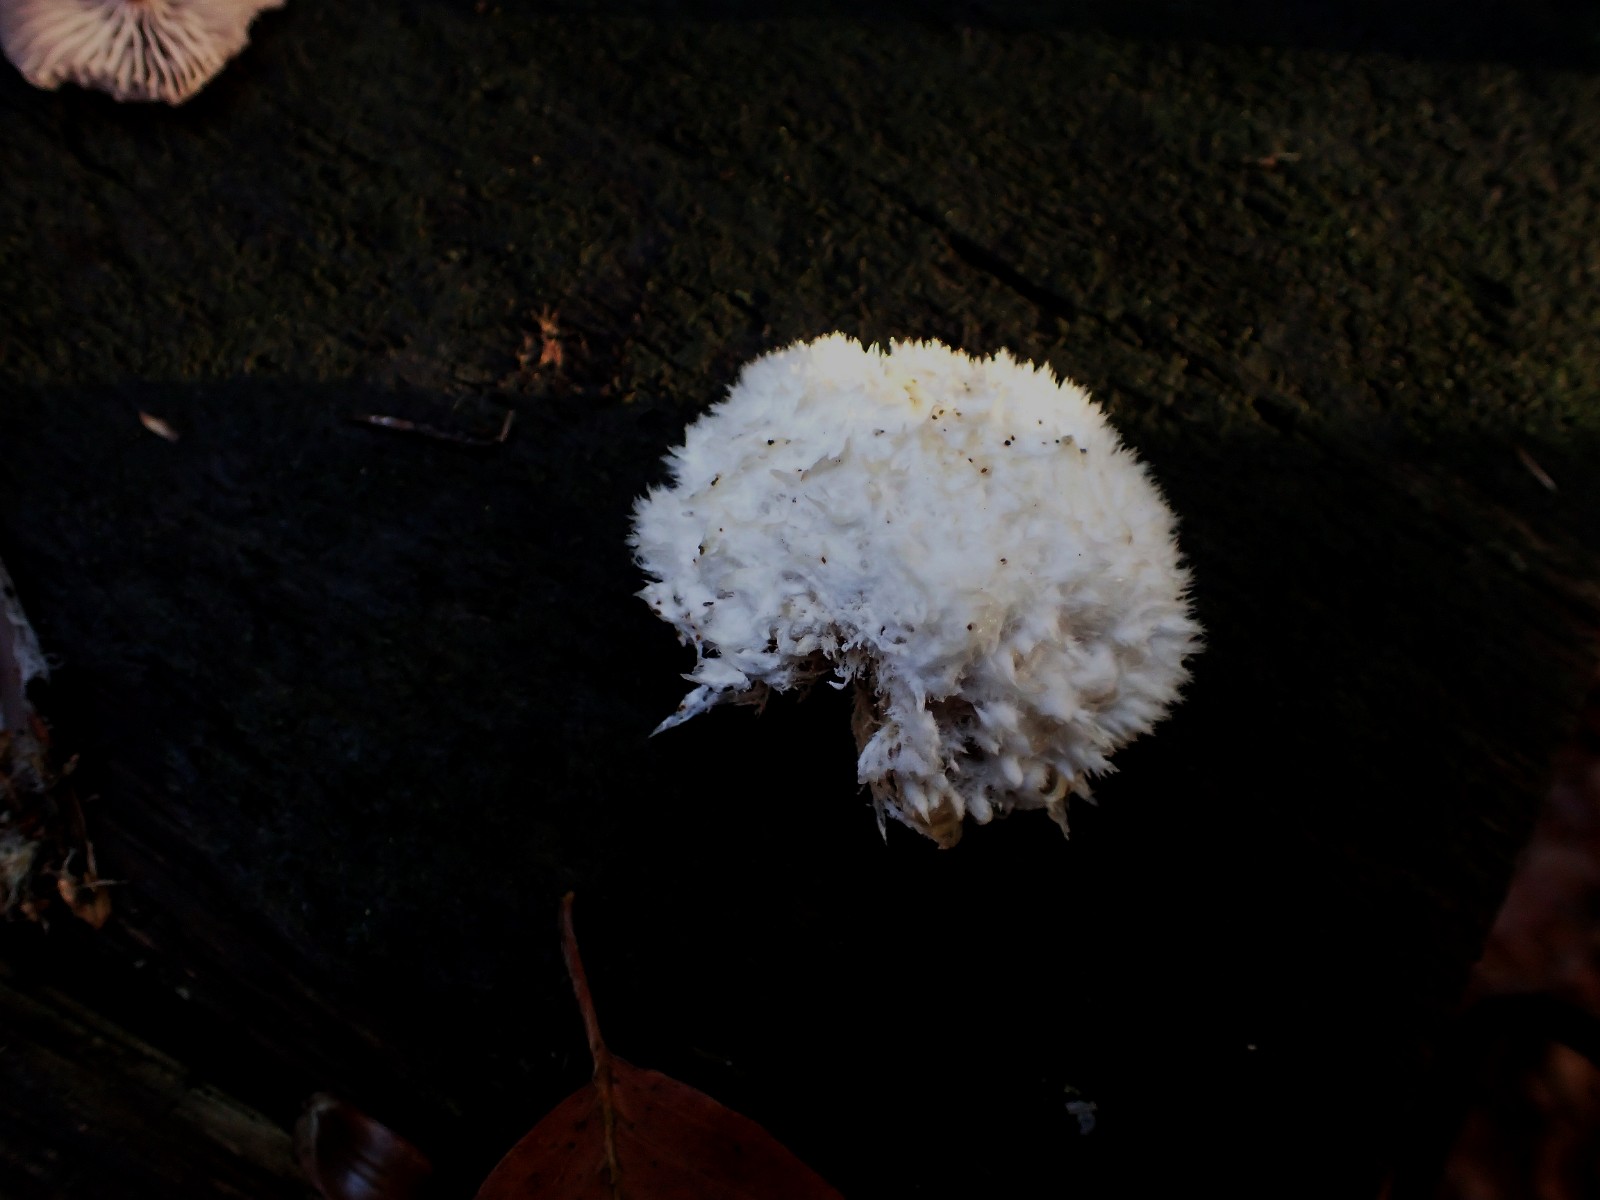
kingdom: Fungi
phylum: Basidiomycota
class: Agaricomycetes
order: Polyporales
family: Dacryobolaceae
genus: Postia
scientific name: Postia ptychogaster
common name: støvende kødporesvamp
